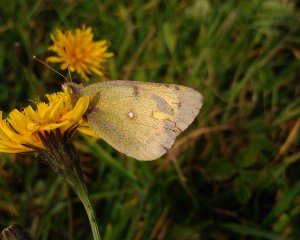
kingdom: Animalia
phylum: Arthropoda
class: Insecta
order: Lepidoptera
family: Pieridae
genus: Colias
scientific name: Colias philodice
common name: Clouded Sulphur
